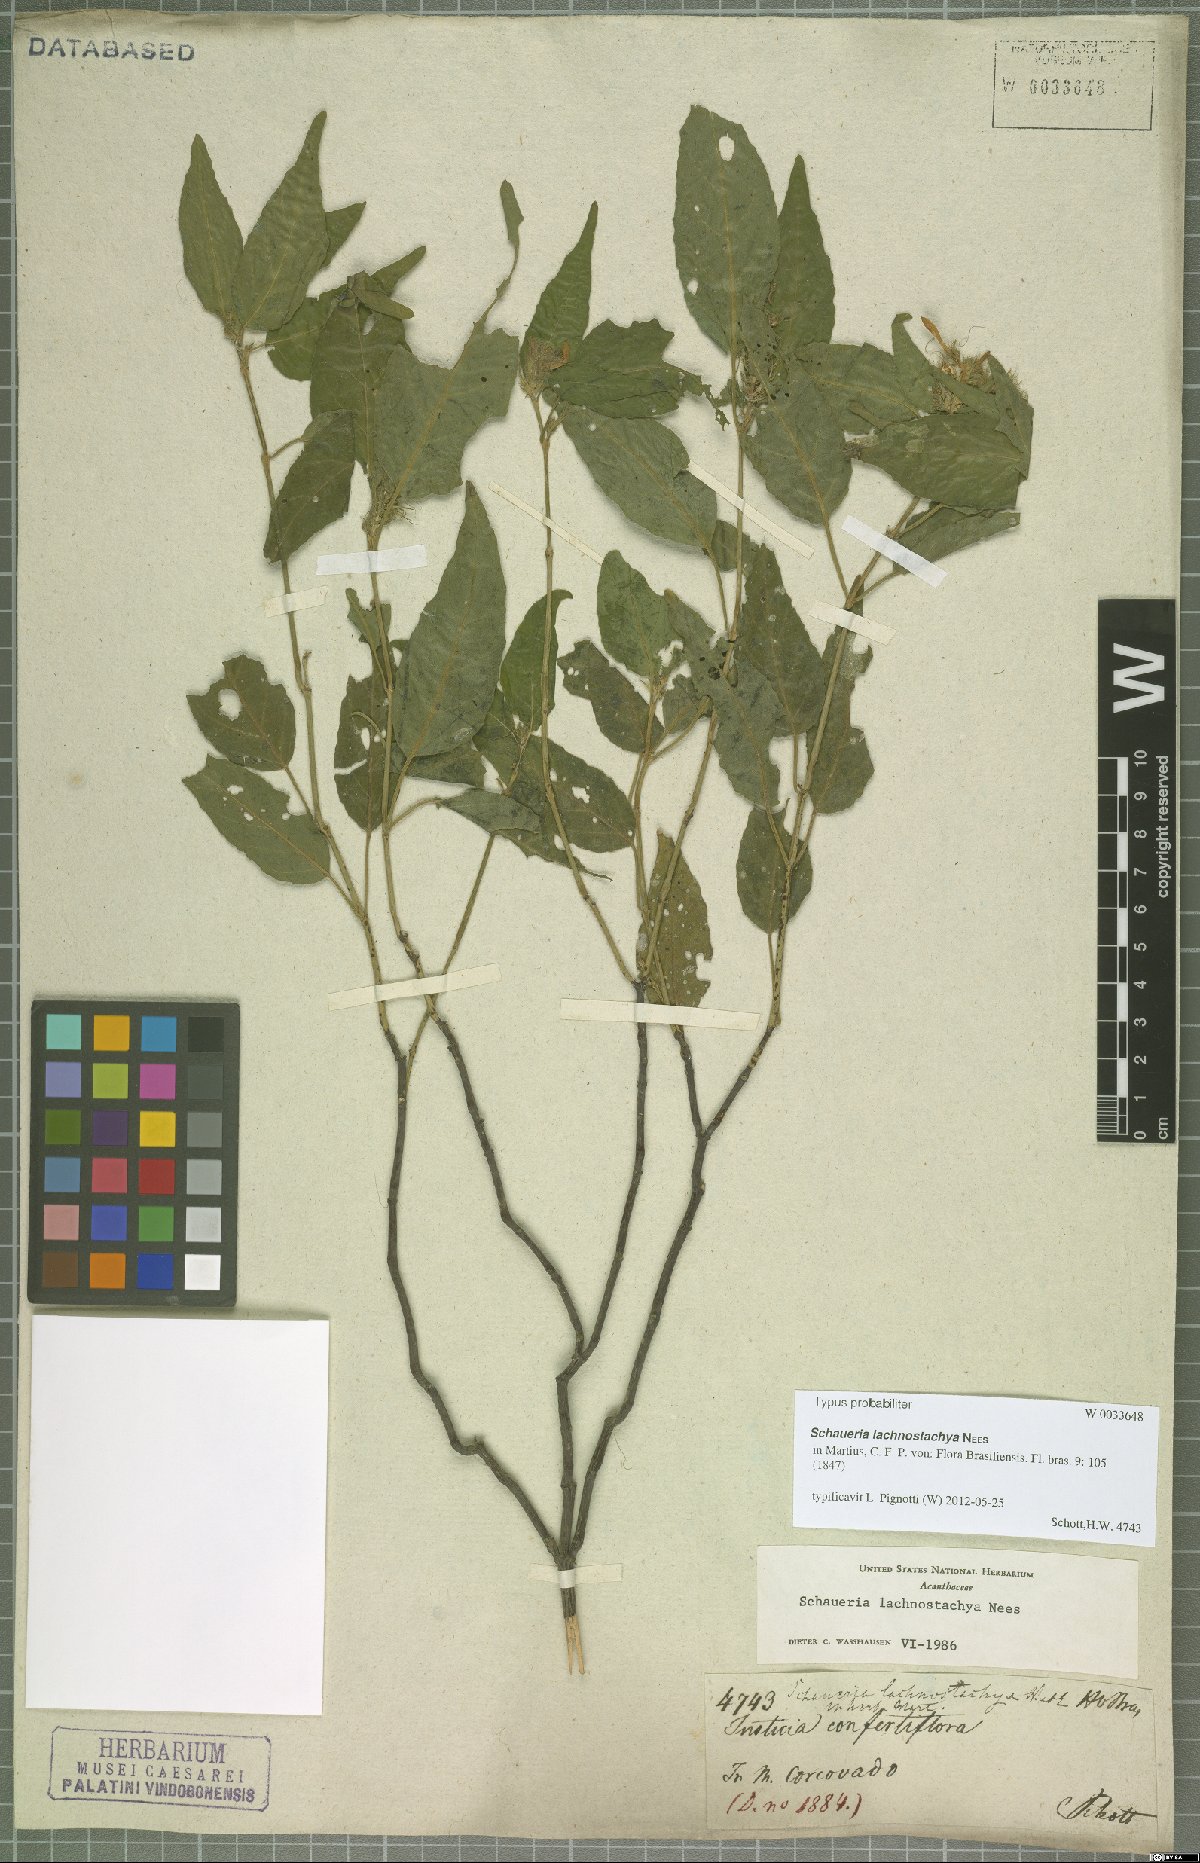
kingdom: Plantae
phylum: Tracheophyta
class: Magnoliopsida
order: Lamiales
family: Acanthaceae
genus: Schaueria
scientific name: Schaueria lachnostachya
